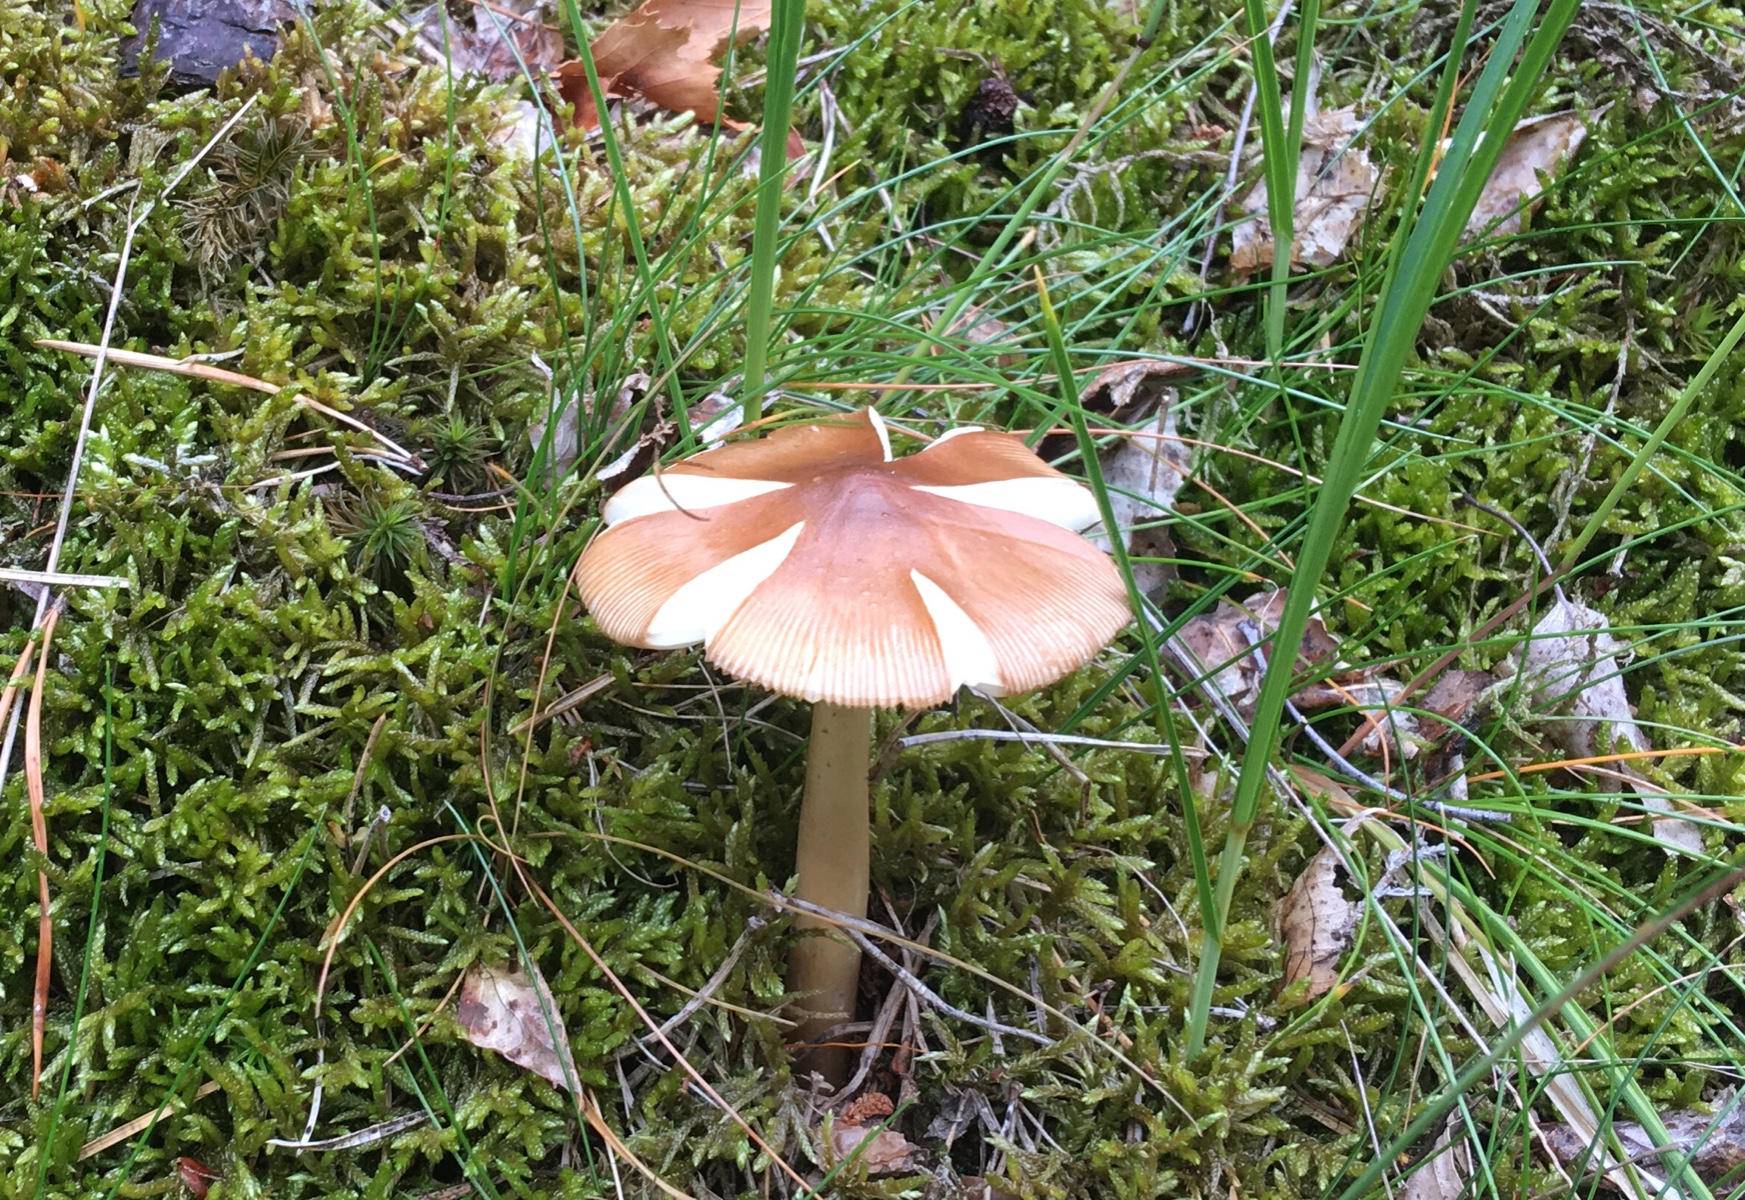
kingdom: Fungi
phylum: Basidiomycota
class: Agaricomycetes
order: Agaricales
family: Amanitaceae
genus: Amanita
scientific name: Amanita fulva
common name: brun kam-fluesvamp
